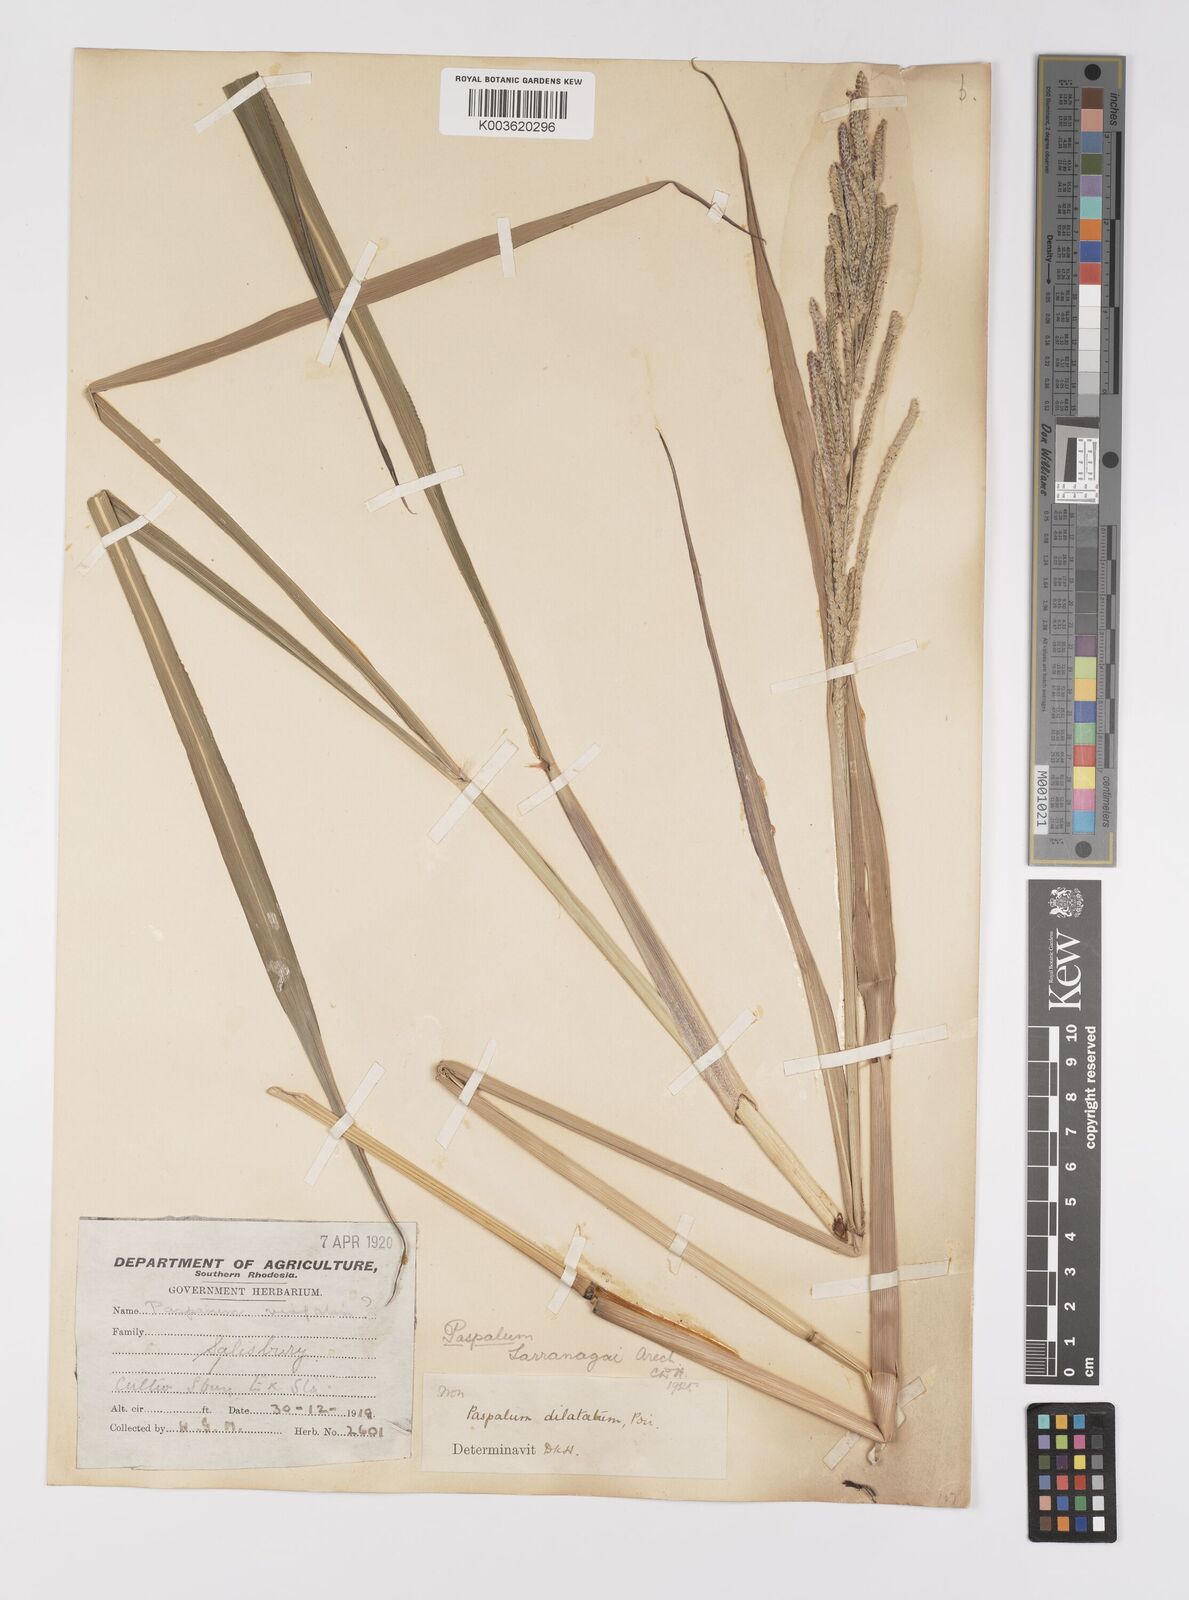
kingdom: Plantae
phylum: Tracheophyta
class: Liliopsida
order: Poales
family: Poaceae
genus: Paspalum
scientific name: Paspalum urvillei
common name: Vasey's grass
